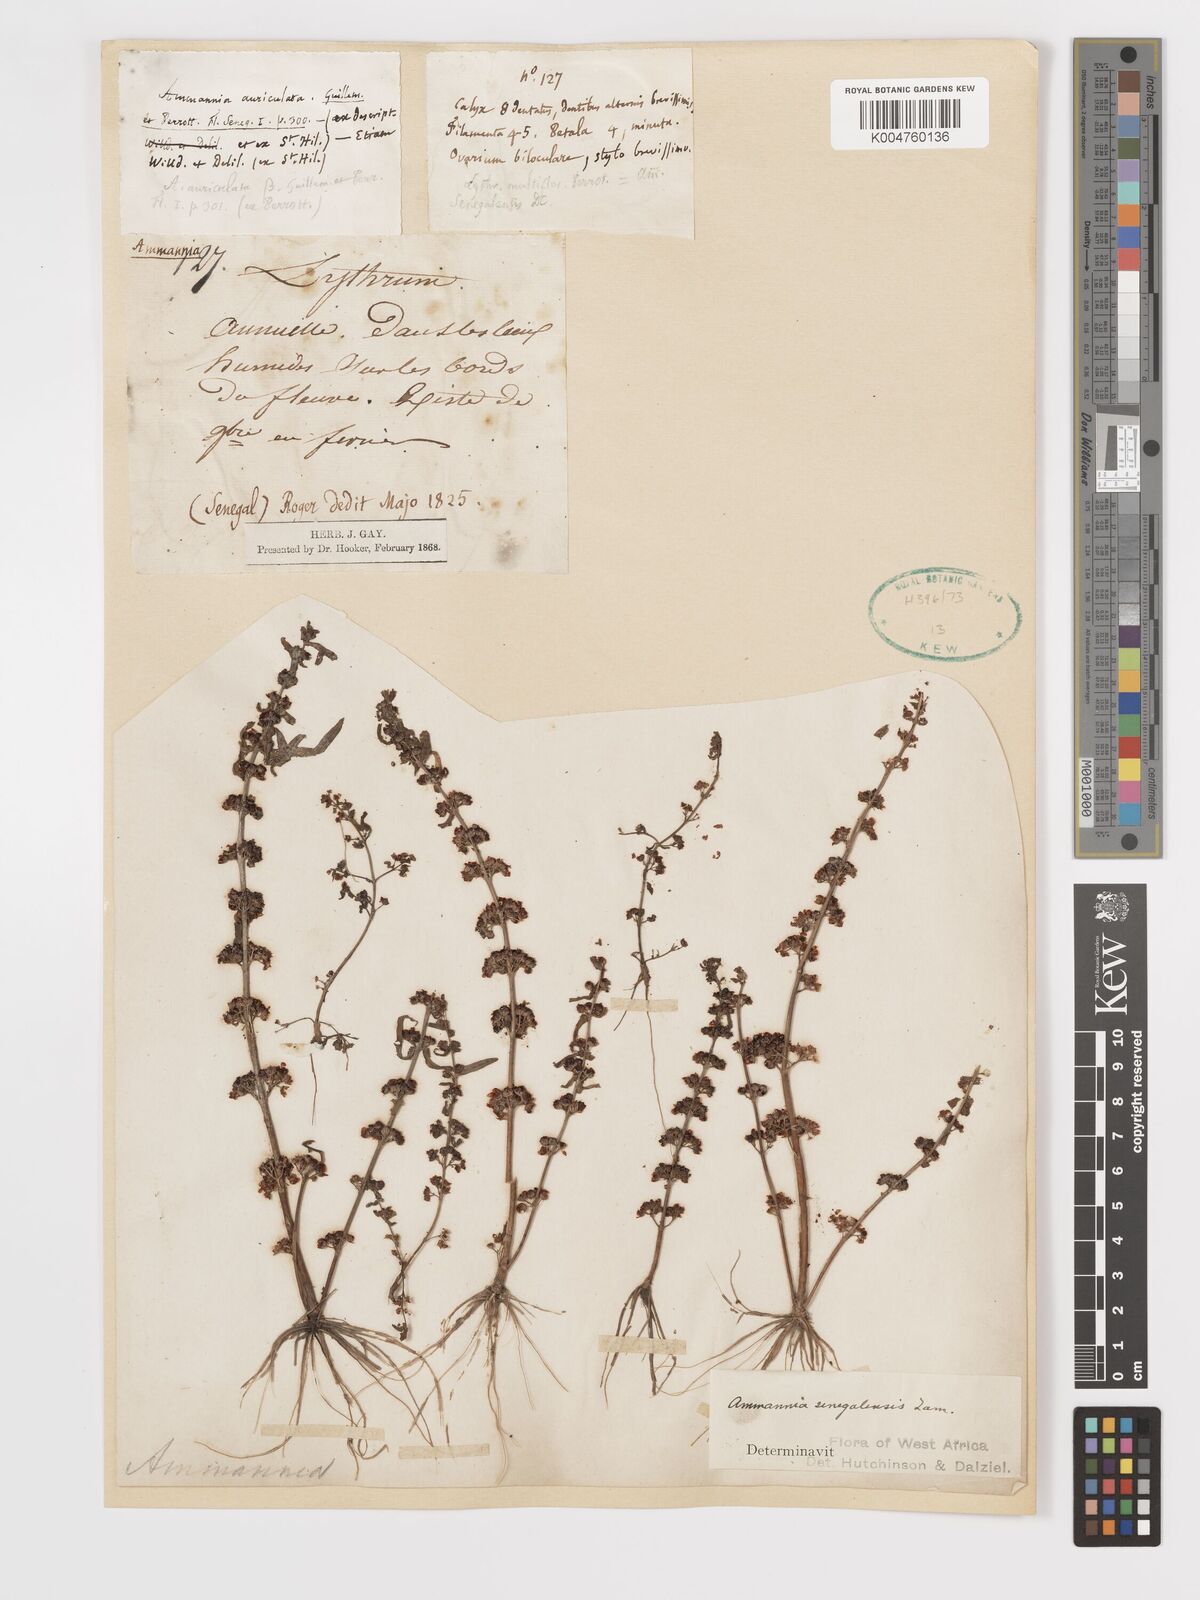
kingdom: Plantae
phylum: Tracheophyta
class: Magnoliopsida
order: Myrtales
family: Lythraceae
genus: Ammannia
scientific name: Ammannia senegalensis
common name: Red ammannia
